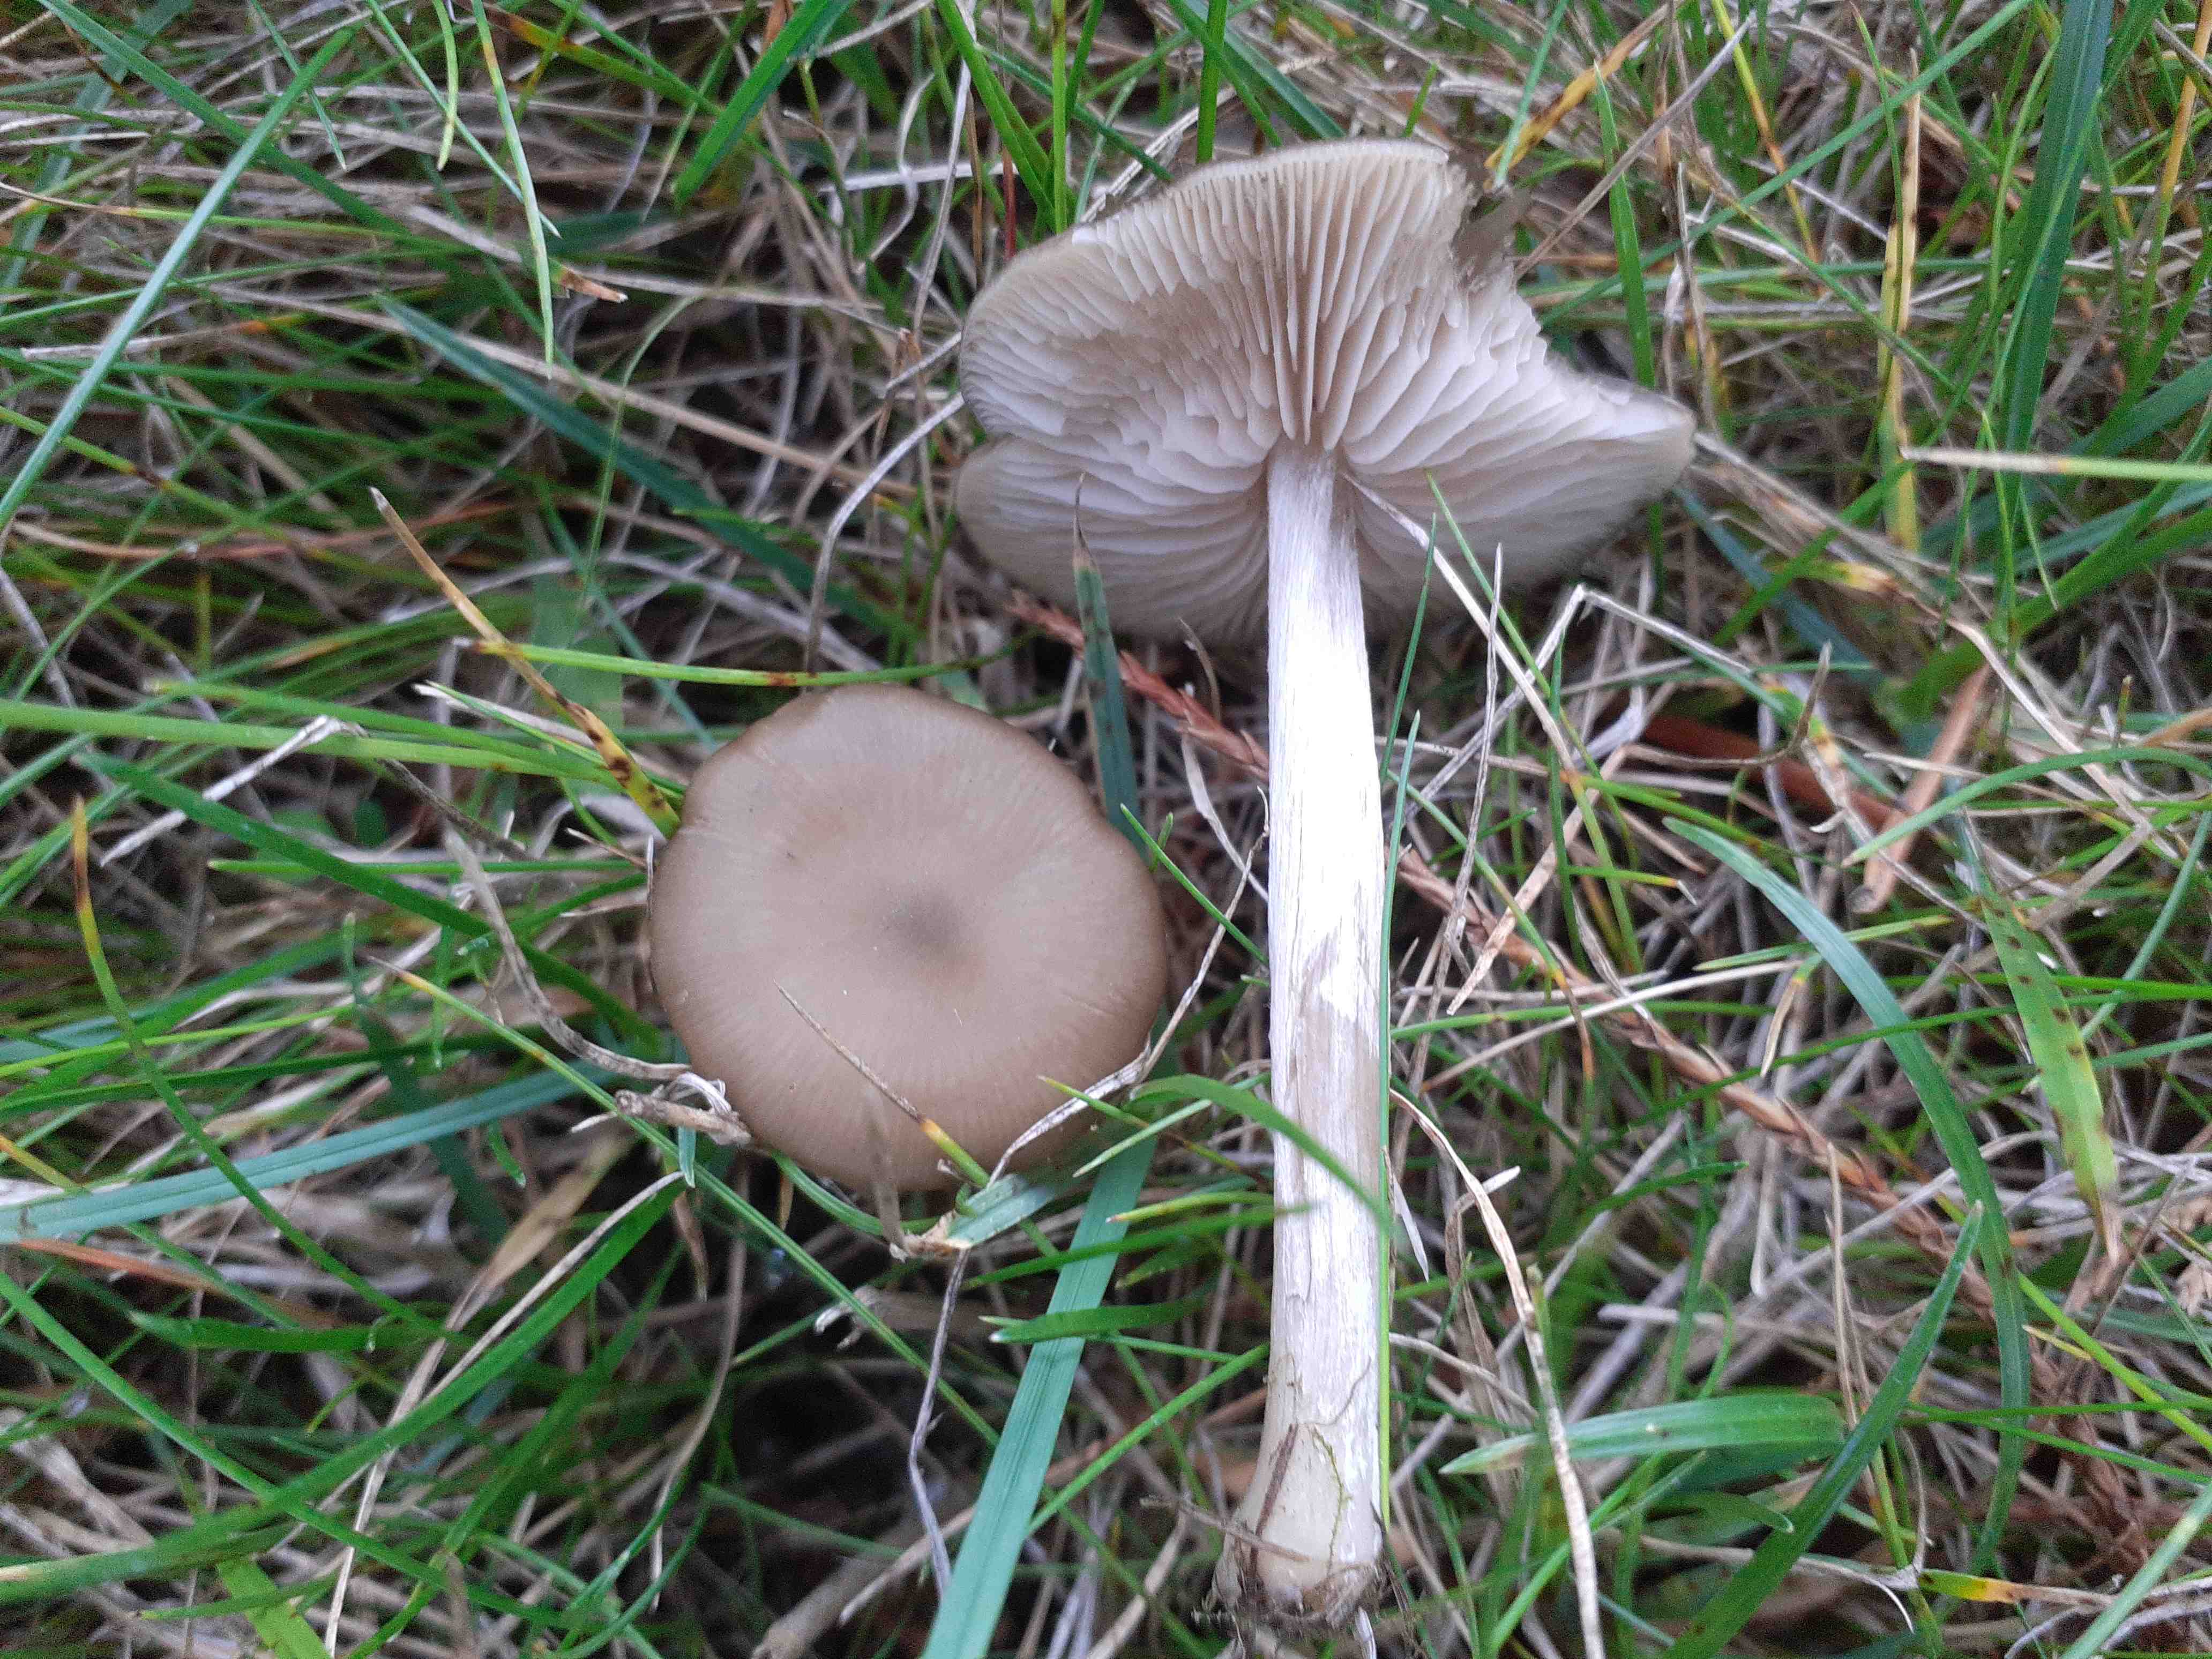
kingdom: Fungi
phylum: Basidiomycota
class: Agaricomycetes
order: Agaricales
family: Entolomataceae
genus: Entoloma
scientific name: Entoloma sericeum
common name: silkeglinsende rødblad
